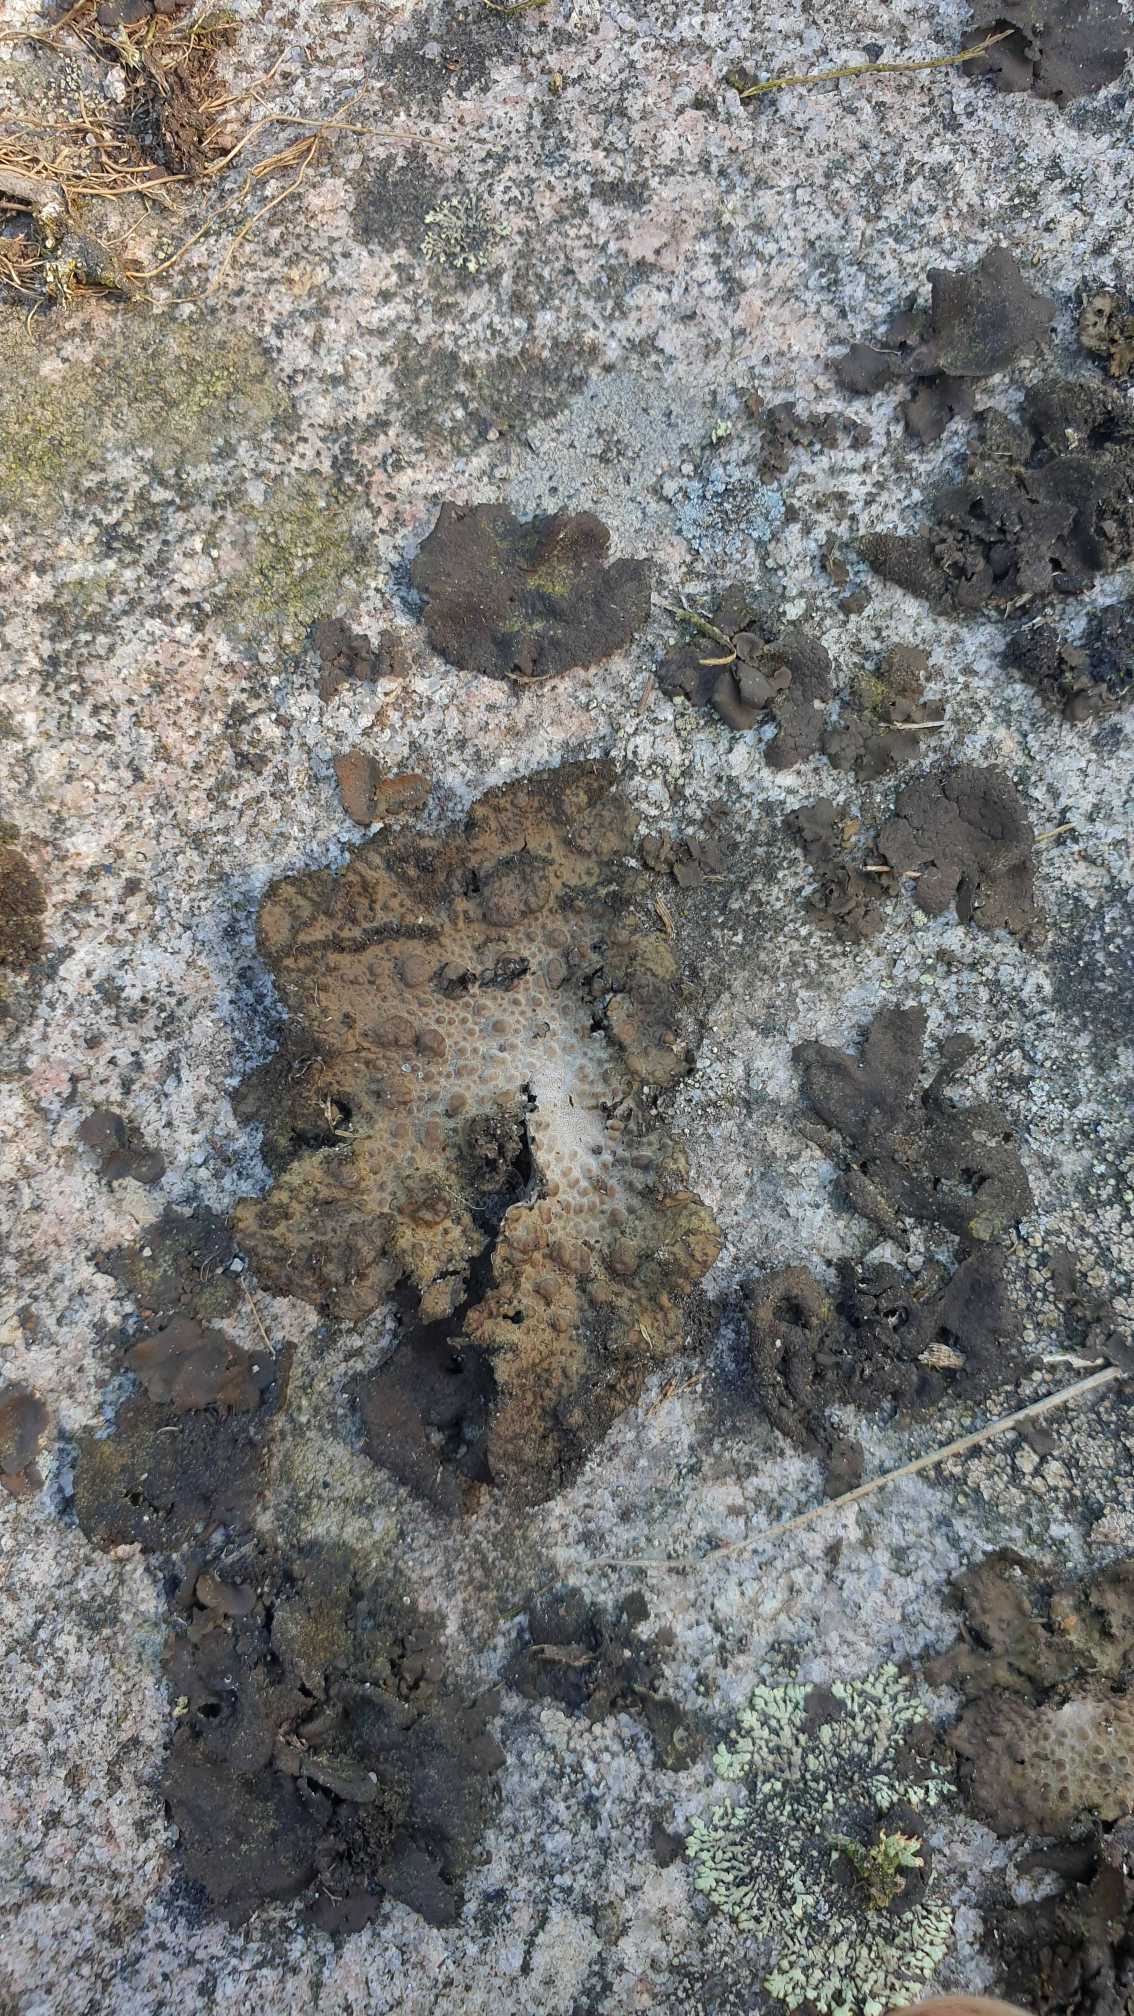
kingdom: Fungi
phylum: Ascomycota
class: Lecanoromycetes
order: Umbilicariales
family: Umbilicariaceae
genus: Lasallia
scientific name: Lasallia pustulata
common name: Buklet navlelav
